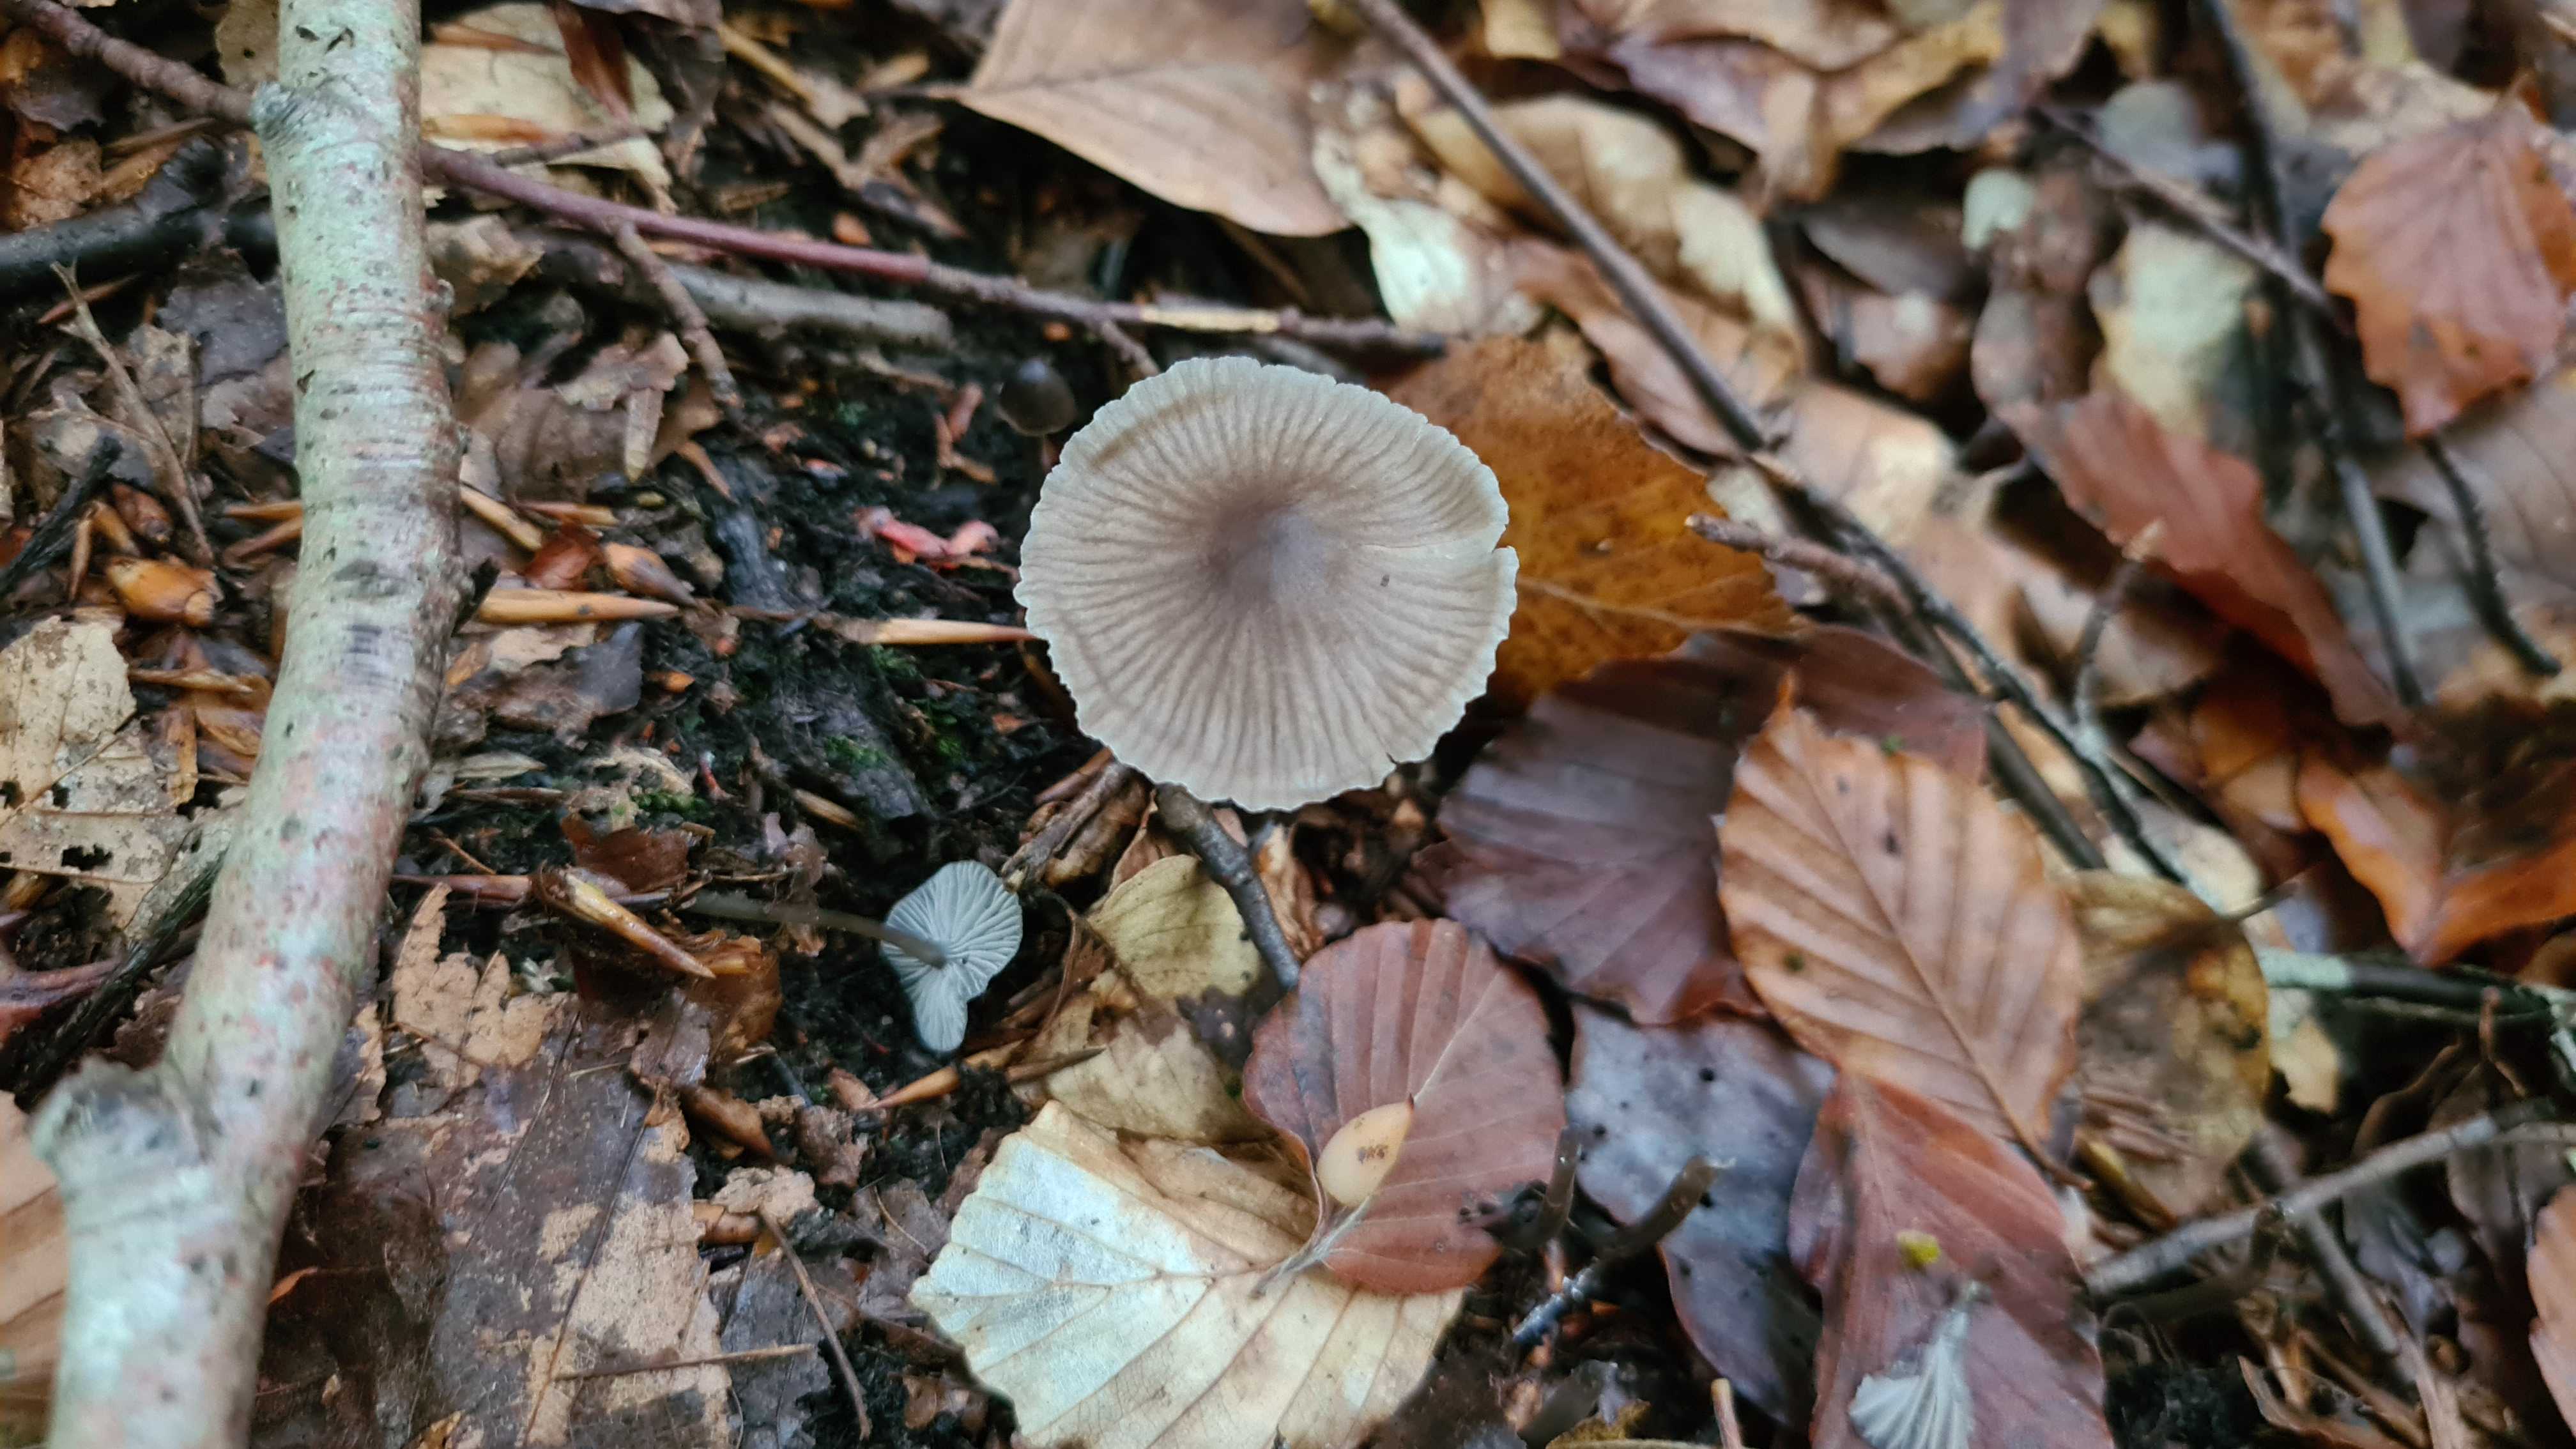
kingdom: Fungi
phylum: Basidiomycota
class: Agaricomycetes
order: Agaricales
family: Mycenaceae
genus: Mycena
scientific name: Mycena
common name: huesvamp
